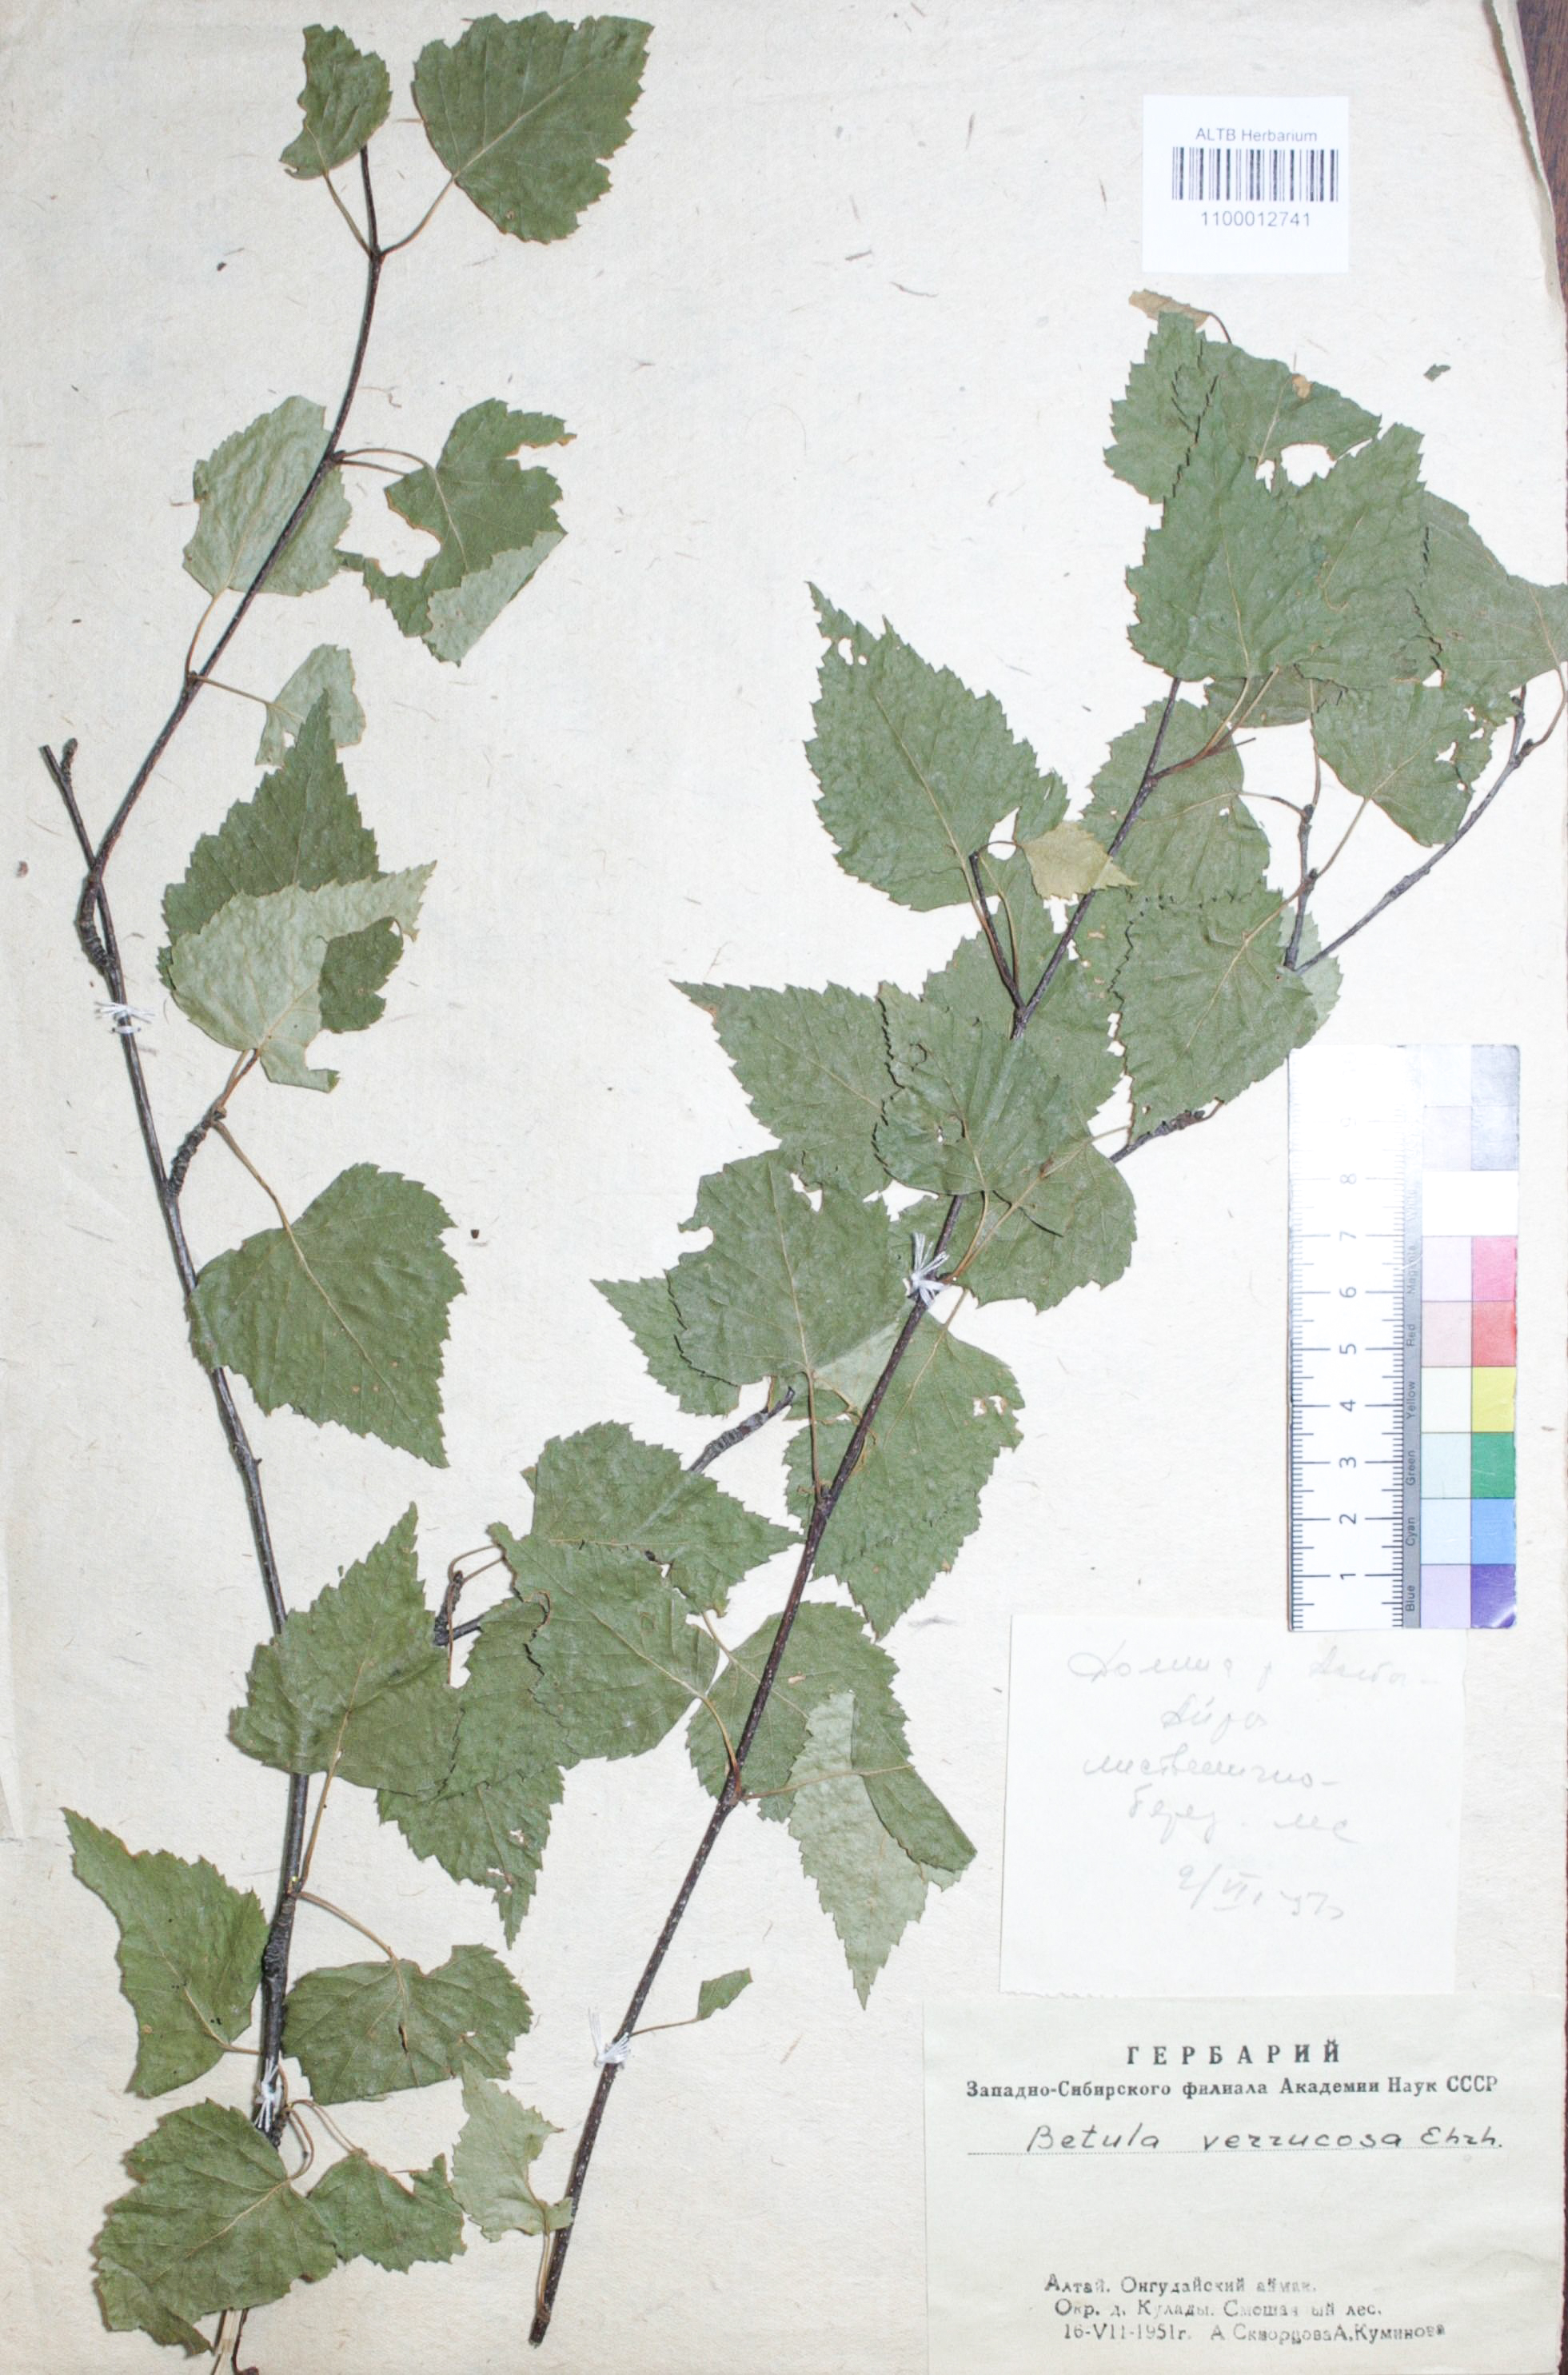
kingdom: Plantae
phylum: Tracheophyta
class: Magnoliopsida
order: Fagales
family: Betulaceae
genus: Betula
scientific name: Betula pendula
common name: Silver birch
